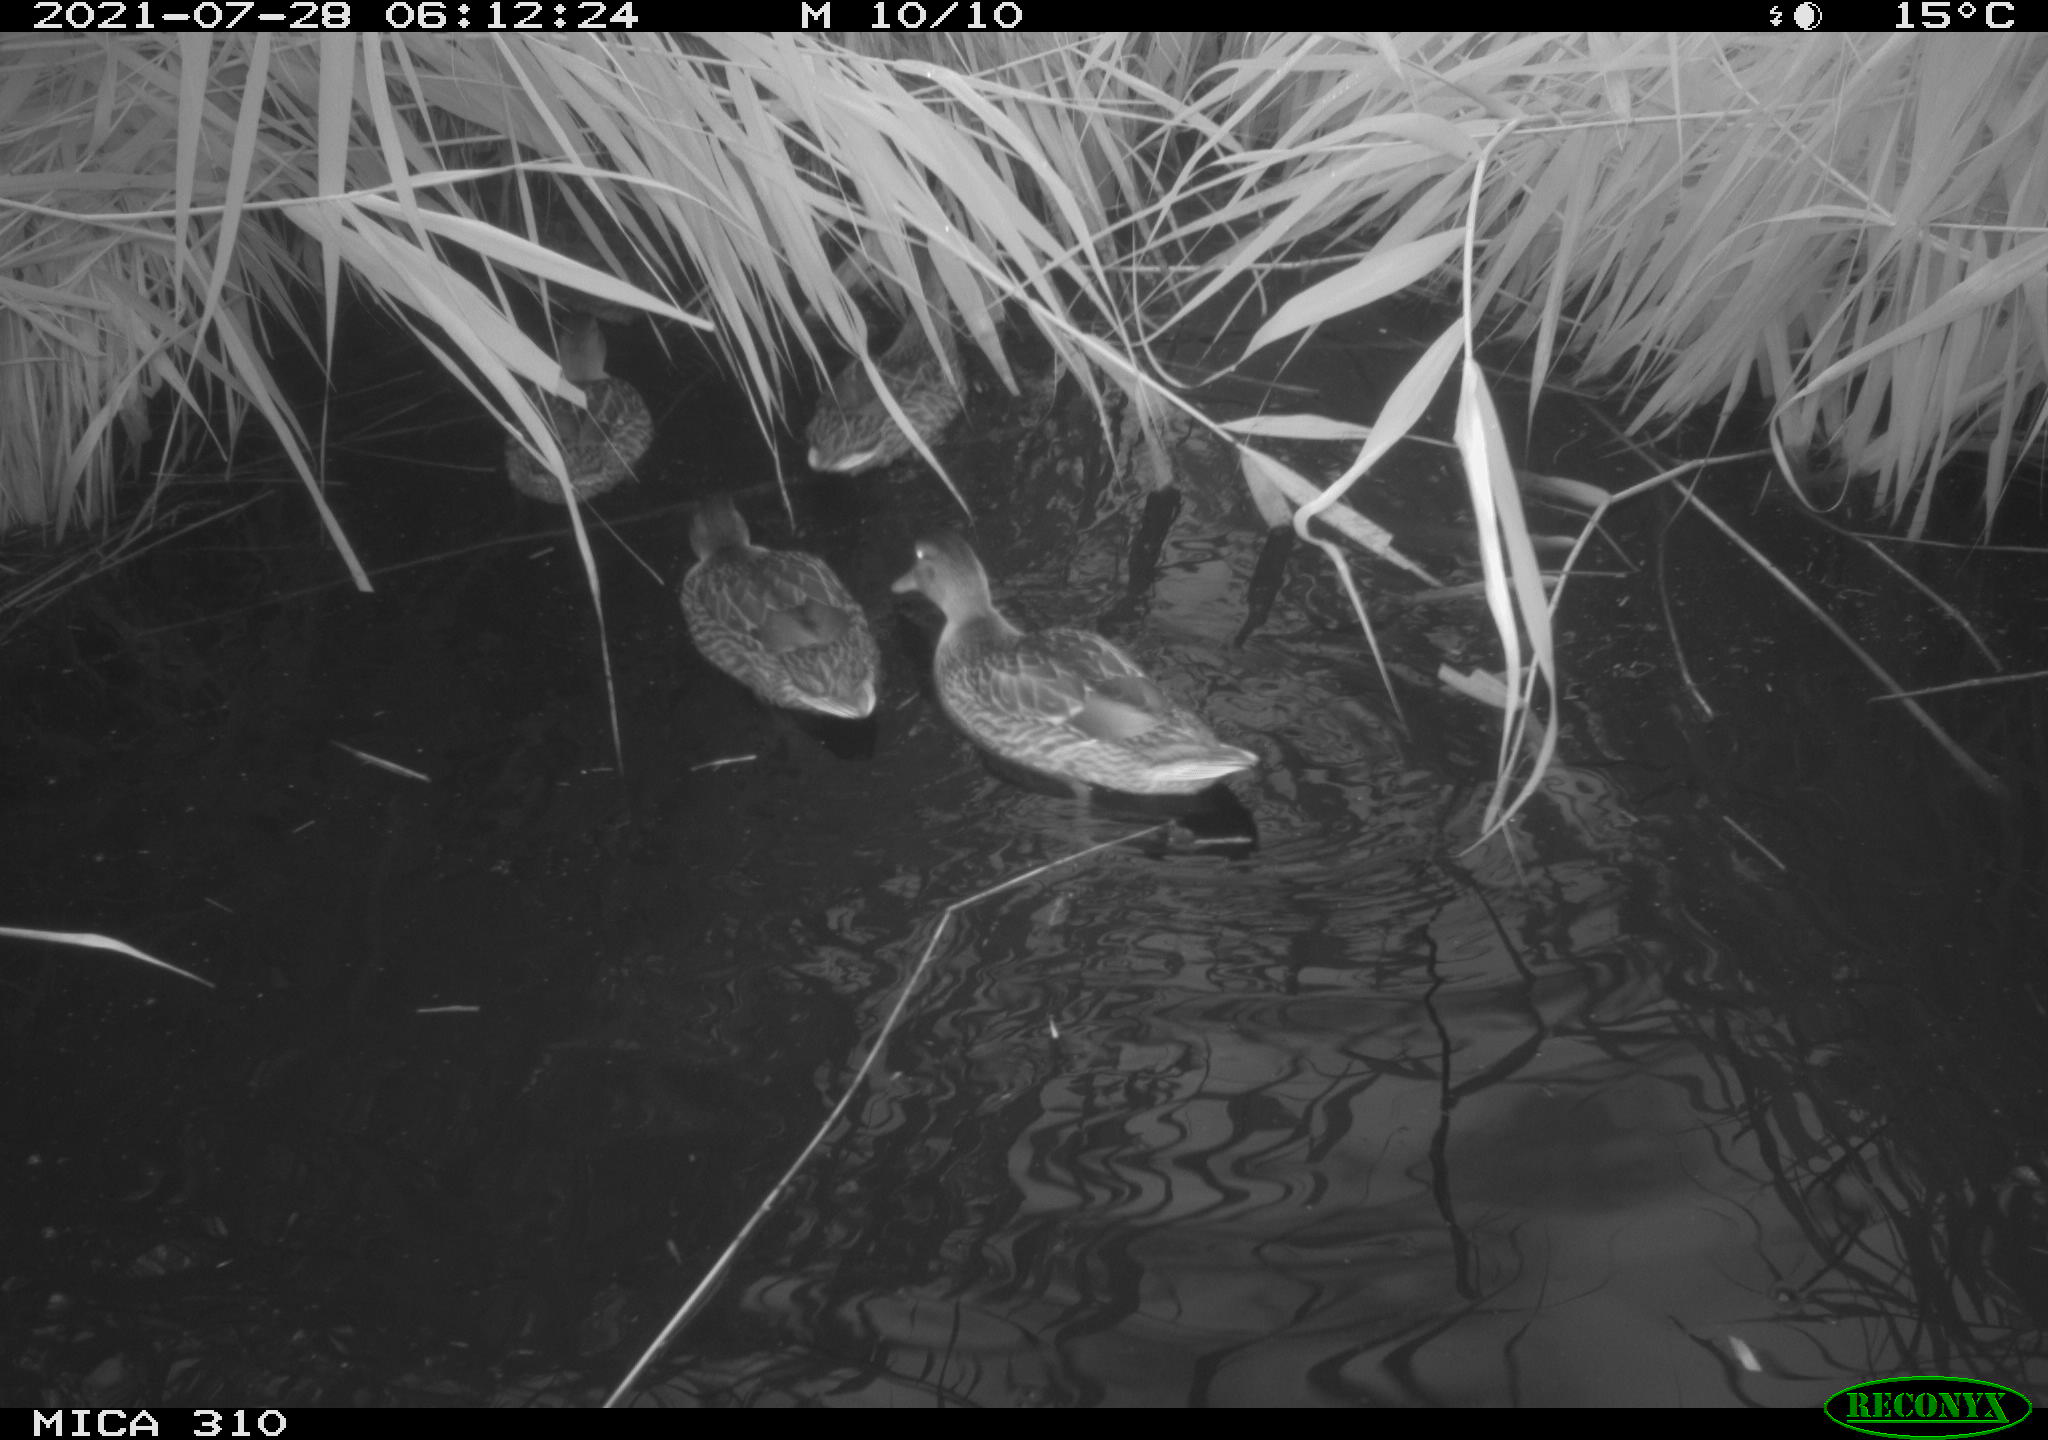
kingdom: Animalia
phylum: Chordata
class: Aves
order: Anseriformes
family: Anatidae
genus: Anas
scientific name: Anas platyrhynchos
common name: Mallard
